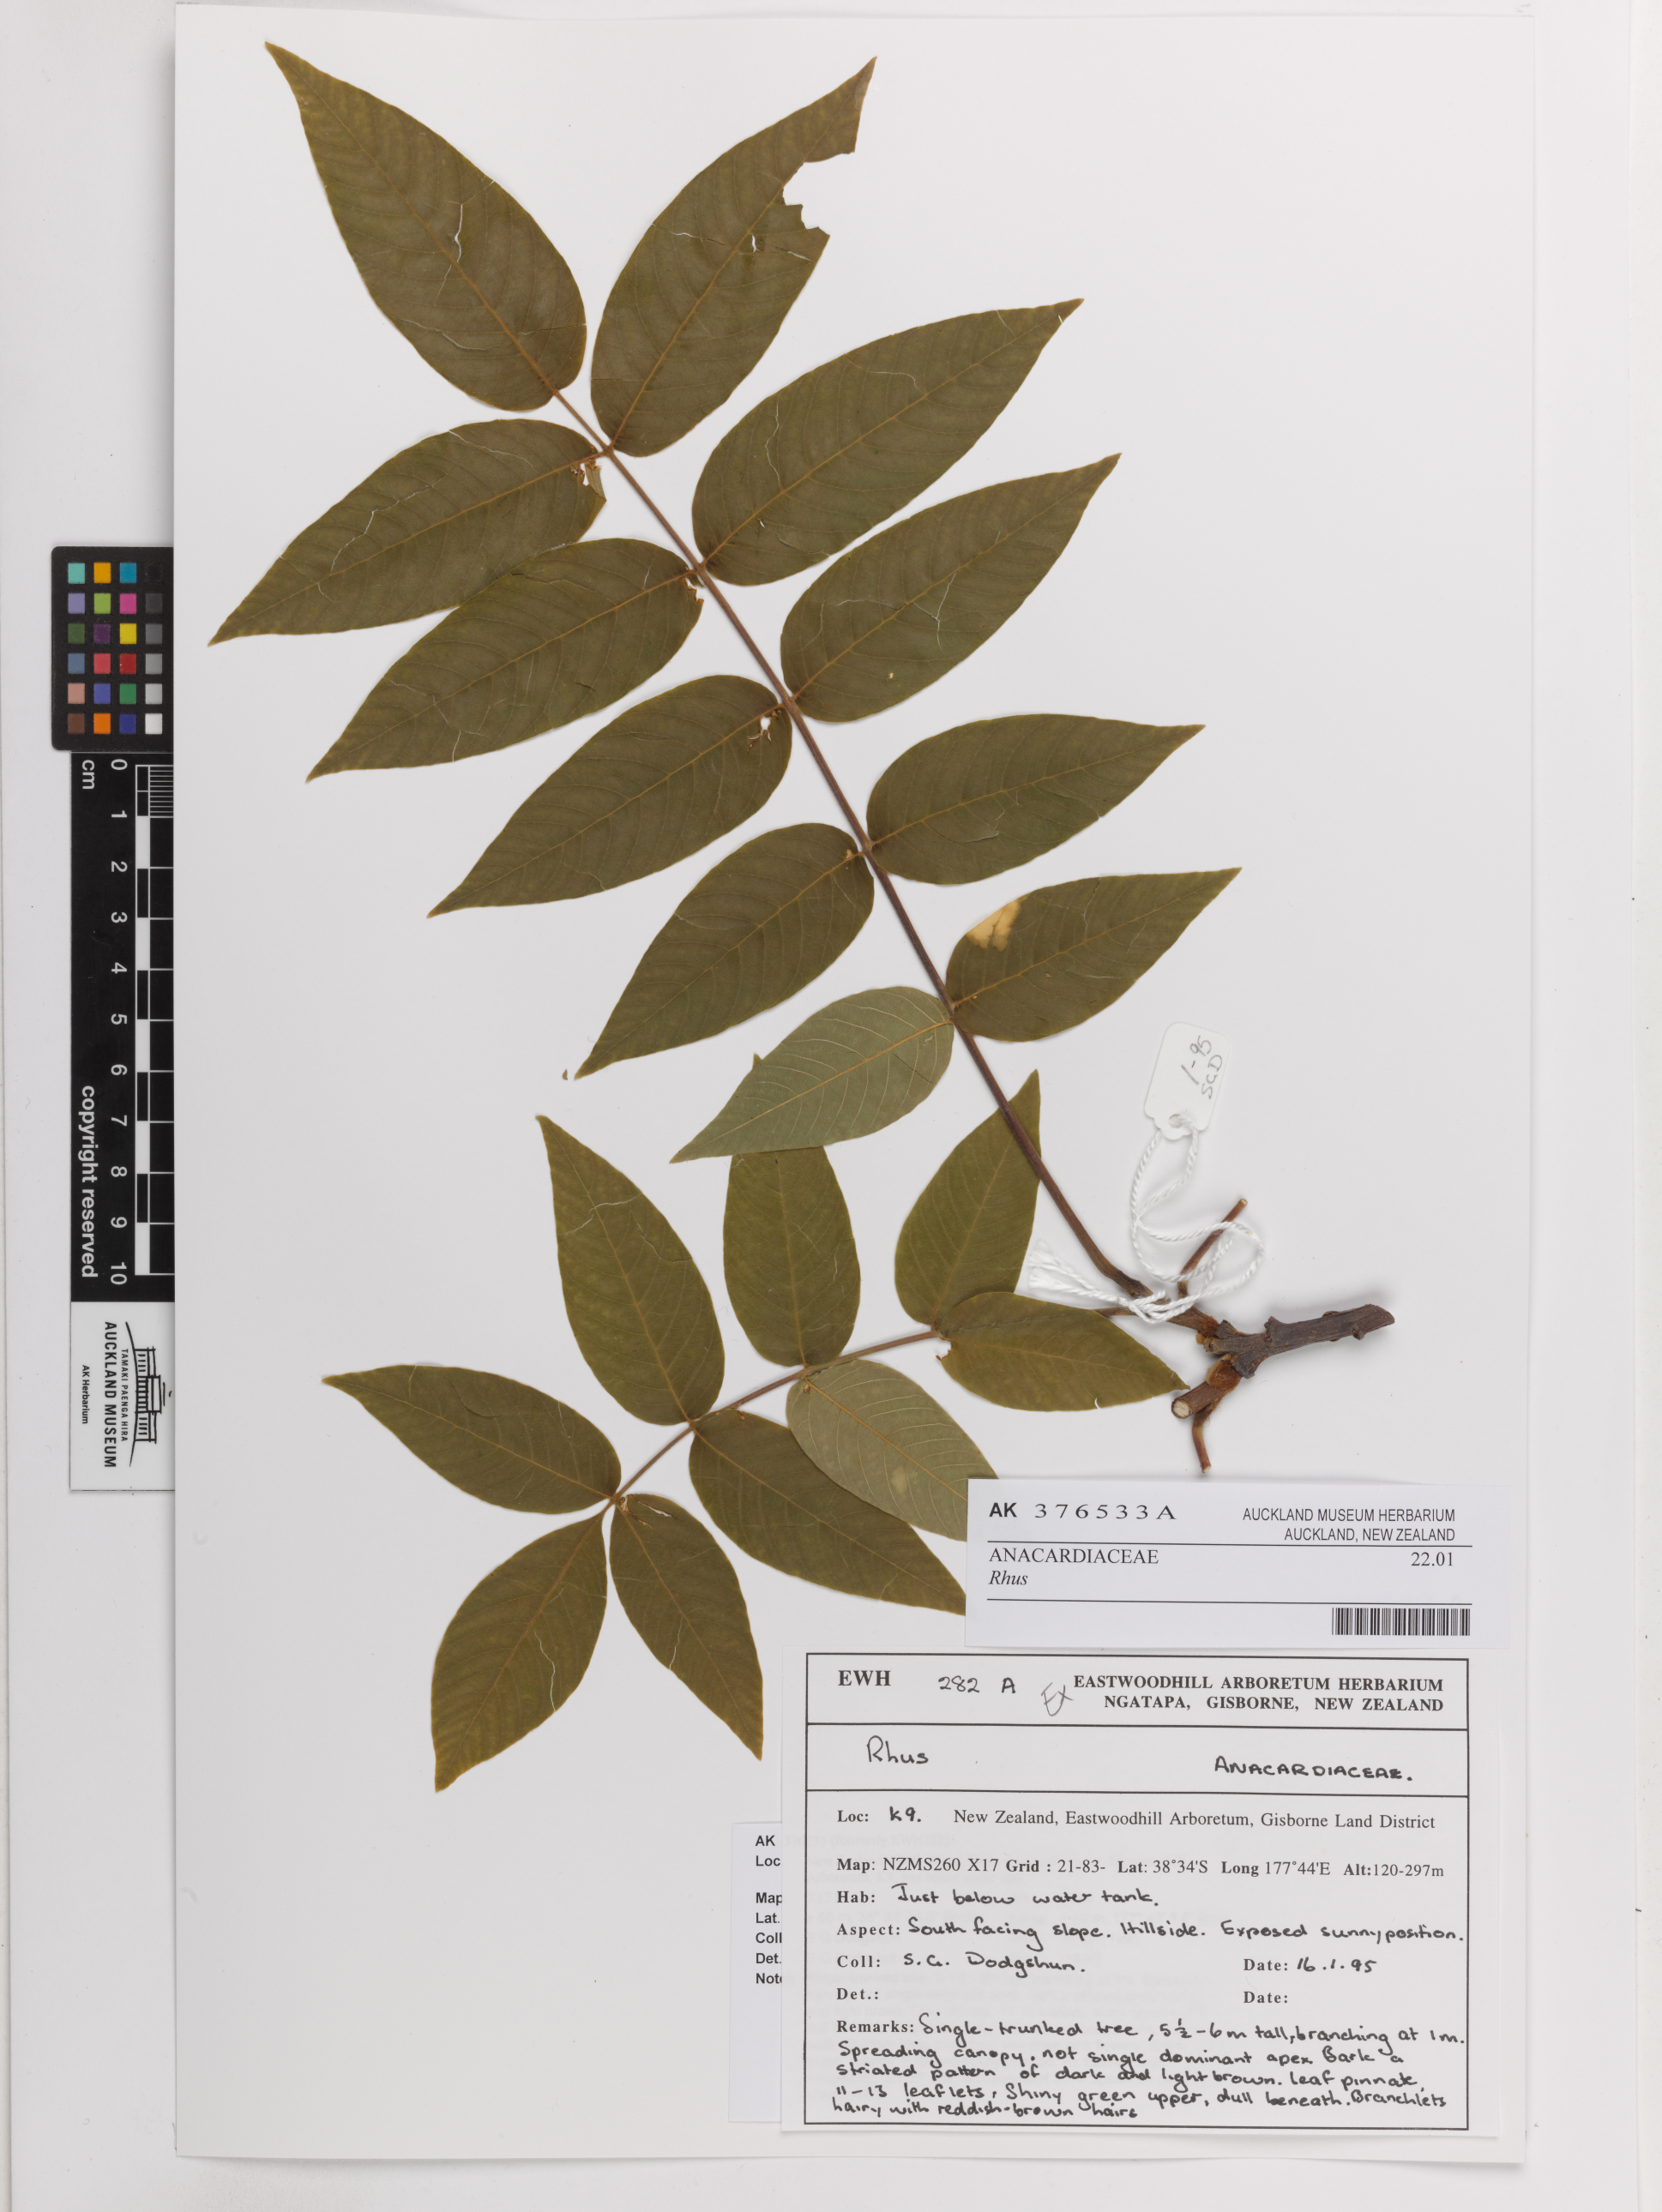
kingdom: Plantae
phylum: Tracheophyta
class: Magnoliopsida
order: Sapindales
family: Anacardiaceae
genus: Rhus
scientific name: Rhus
